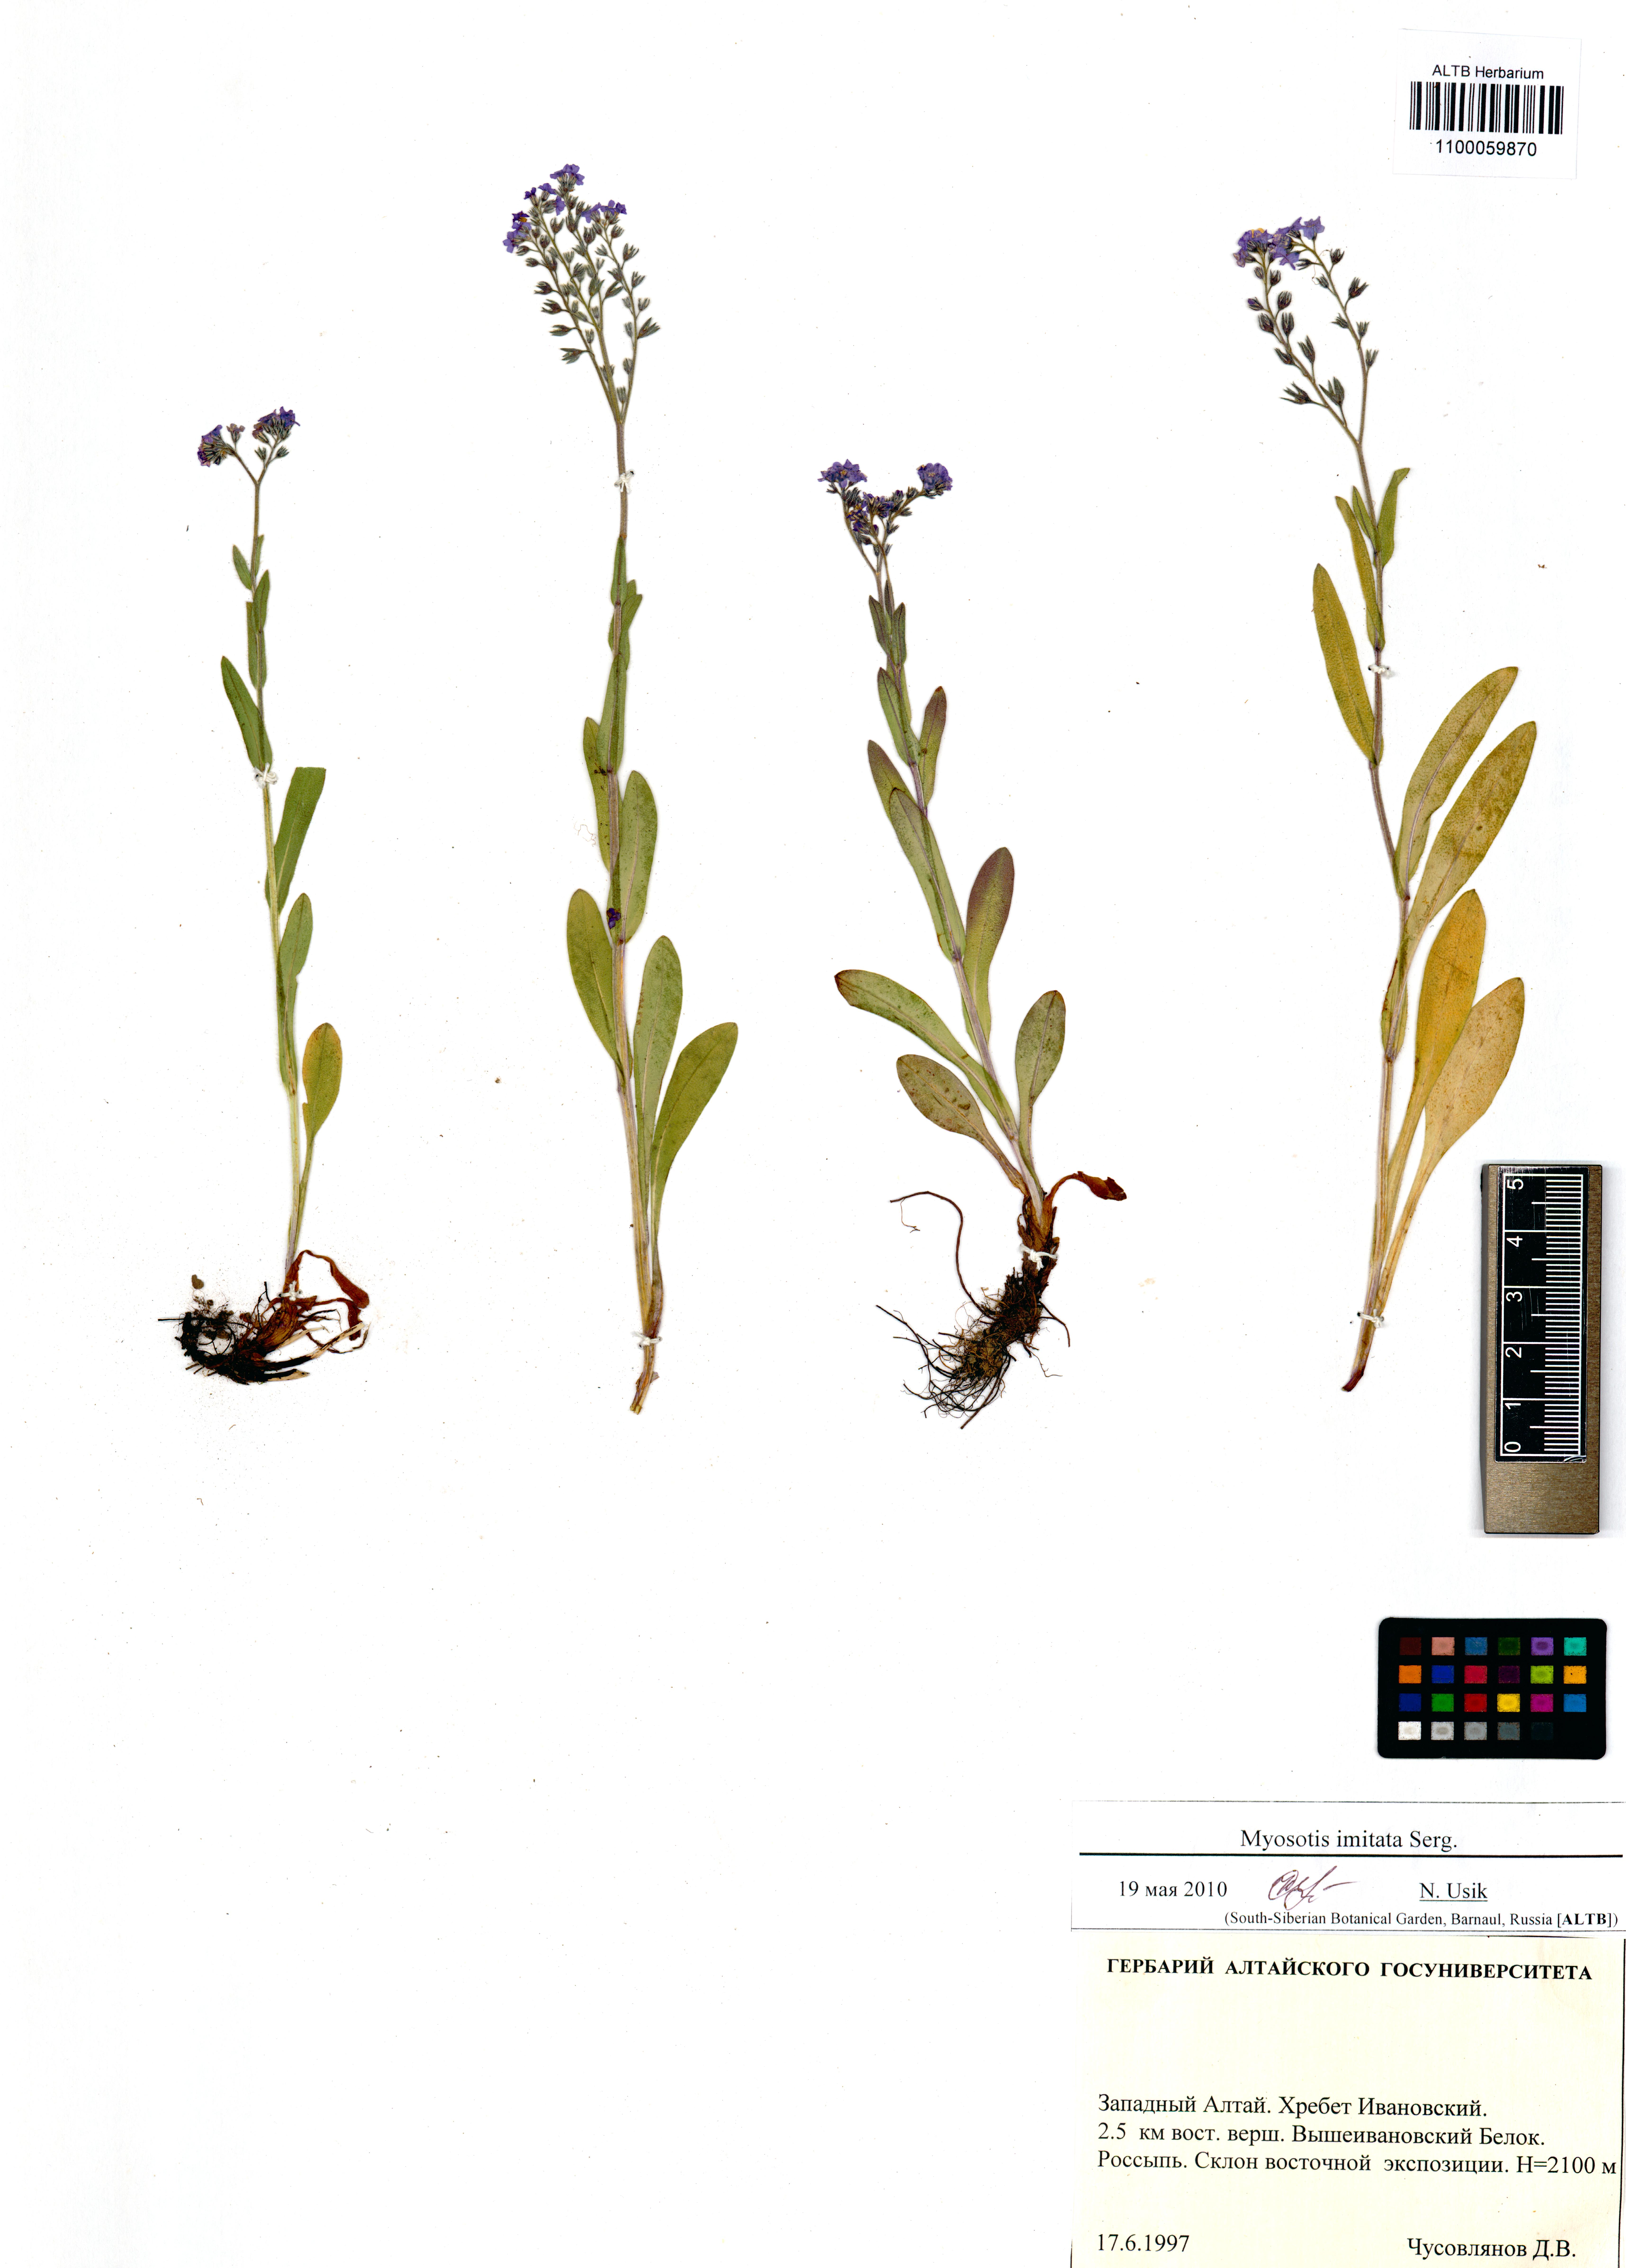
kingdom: Plantae
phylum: Tracheophyta
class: Magnoliopsida
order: Boraginales
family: Boraginaceae
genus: Myosotis
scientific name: Myosotis imitata
